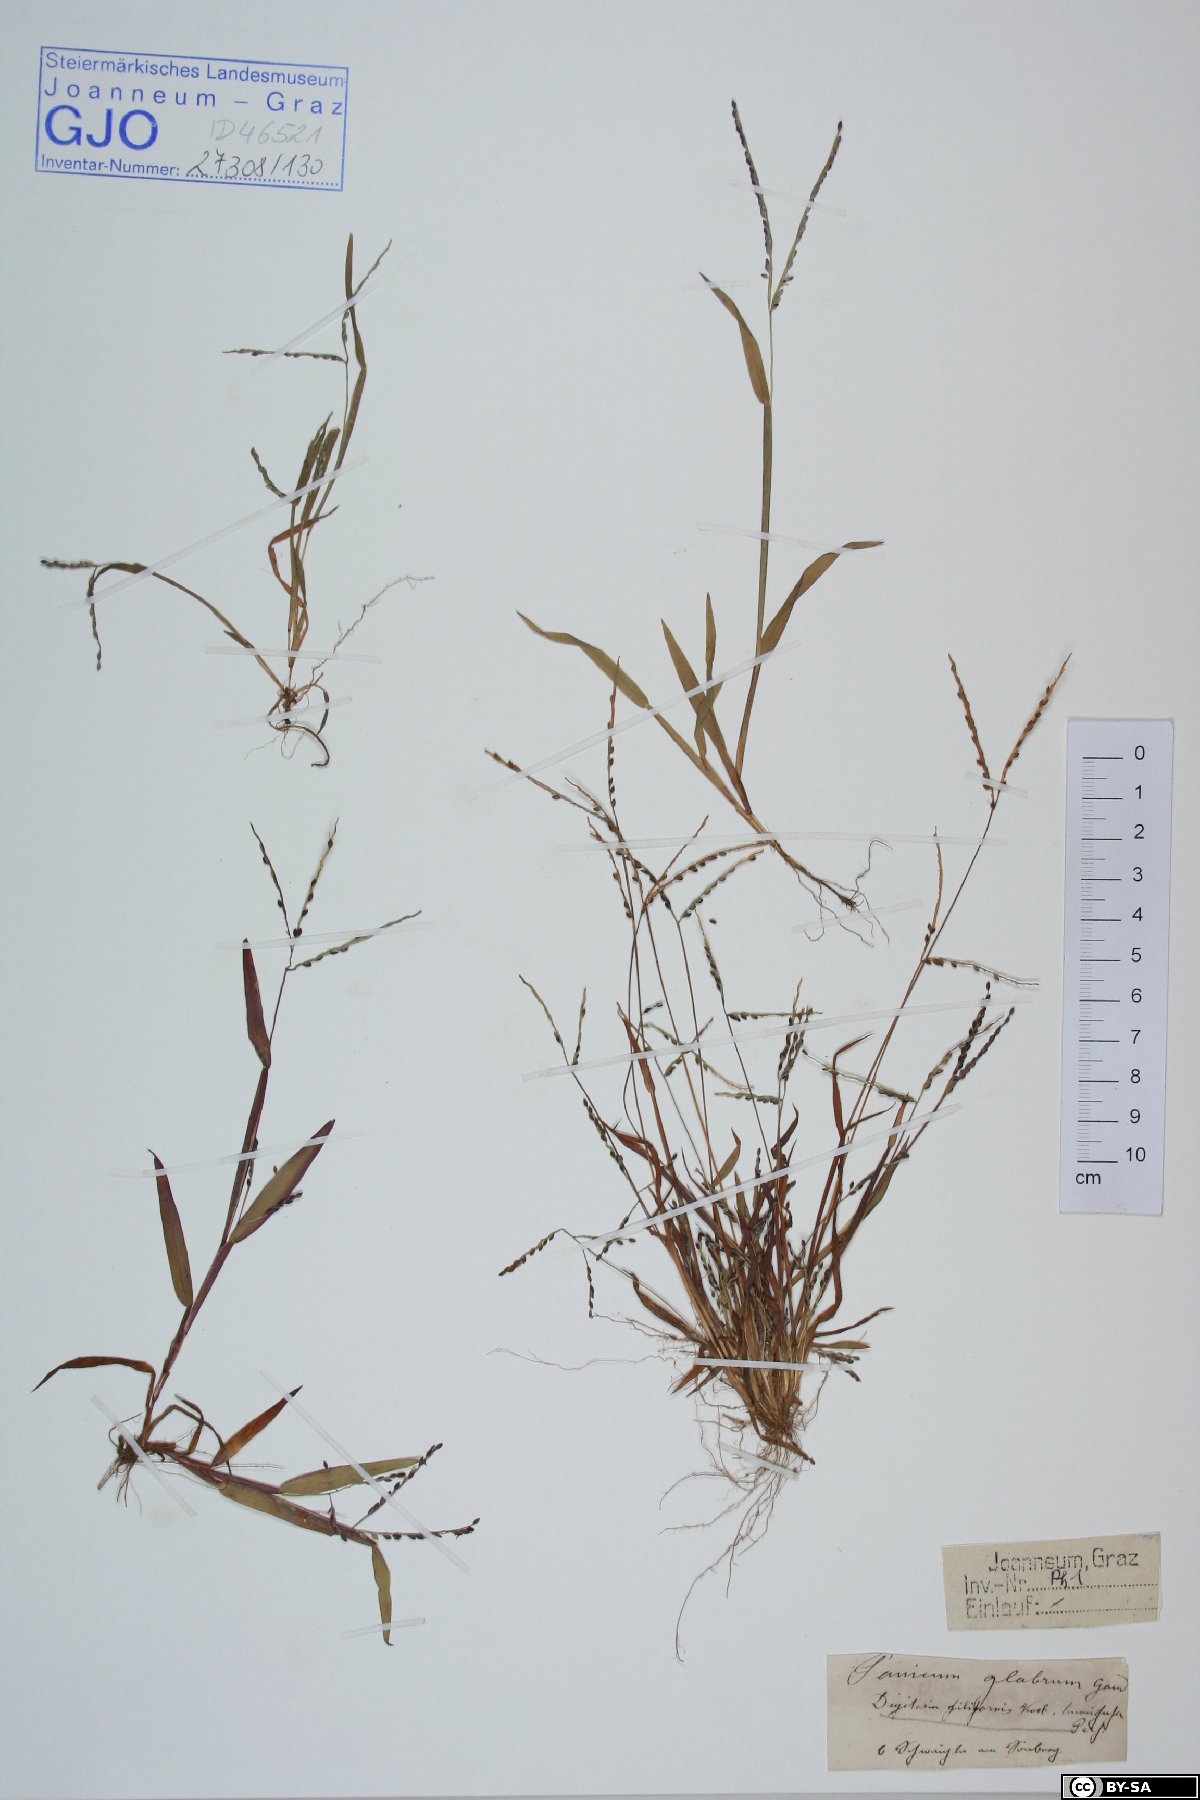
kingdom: Plantae
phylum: Tracheophyta
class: Liliopsida
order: Poales
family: Poaceae
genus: Digitaria
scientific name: Digitaria filiformis
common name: Slender crabgrass
